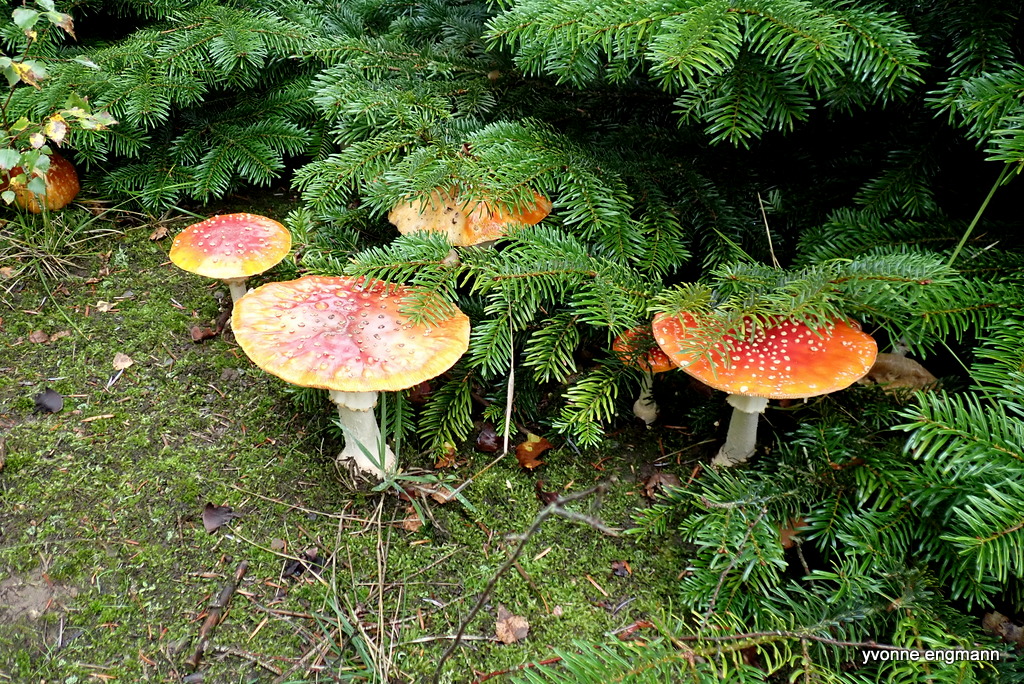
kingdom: Fungi
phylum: Basidiomycota
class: Agaricomycetes
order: Agaricales
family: Amanitaceae
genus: Amanita
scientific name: Amanita muscaria
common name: rød fluesvamp
